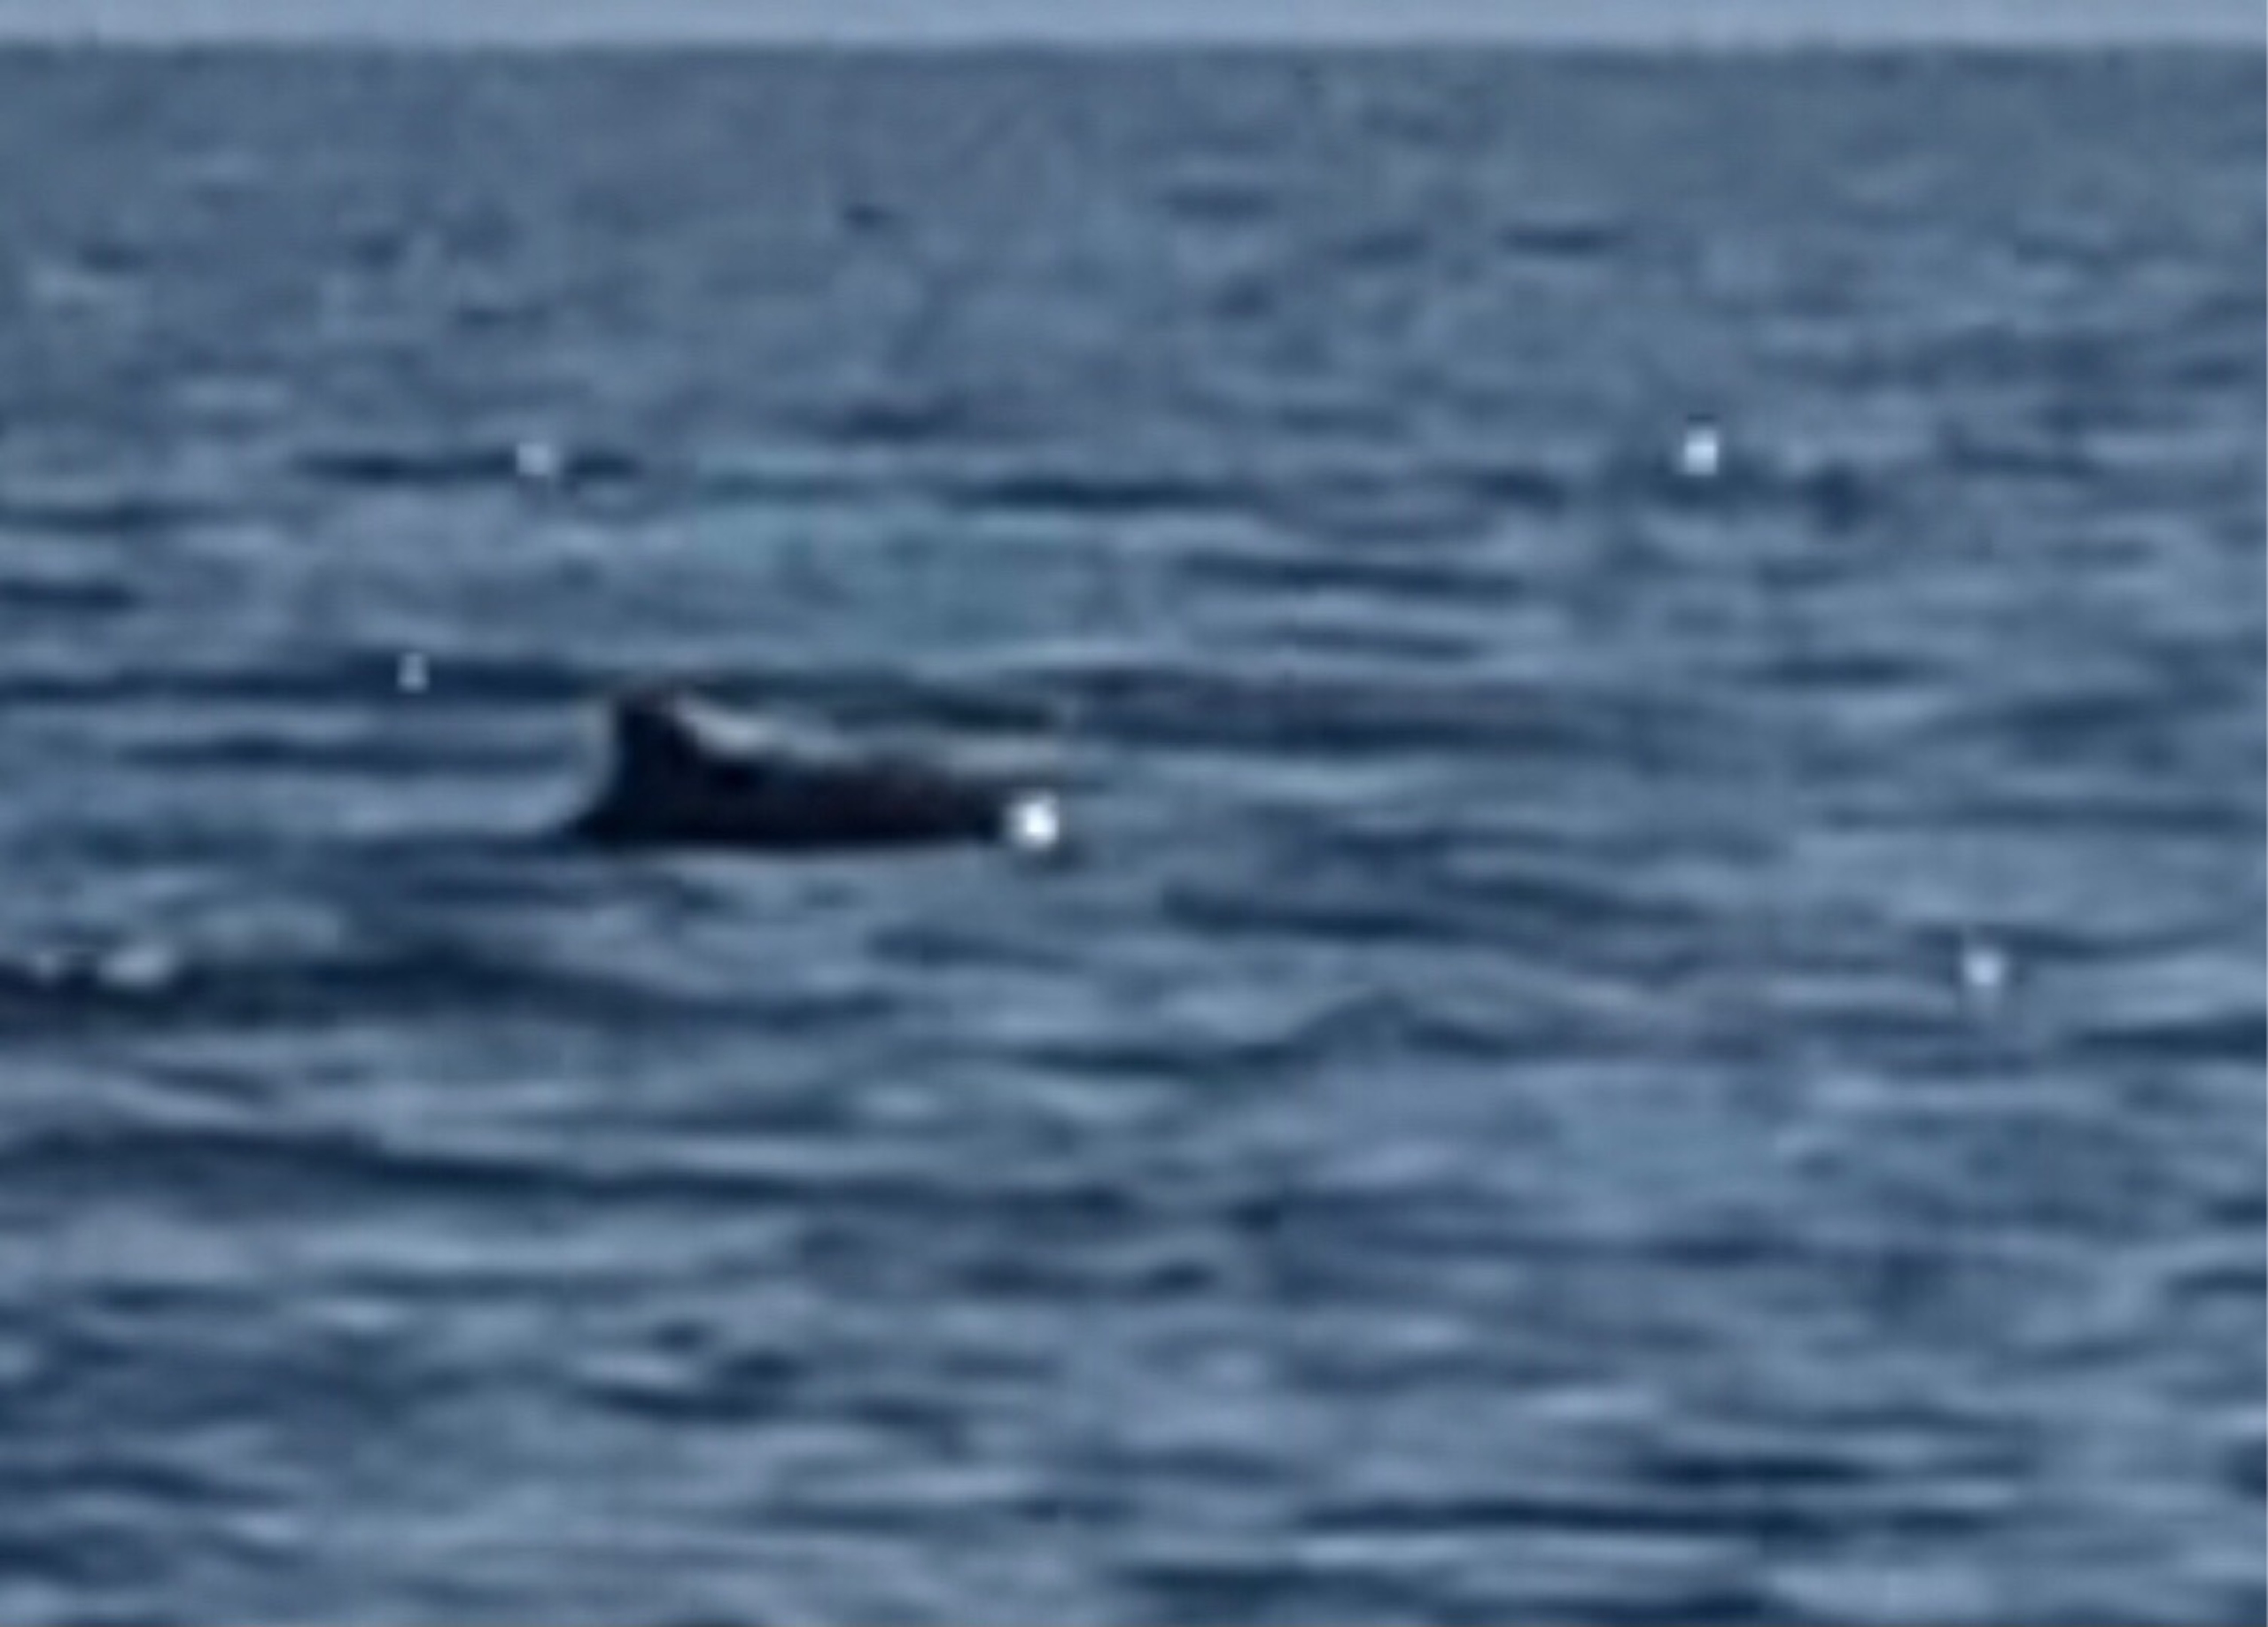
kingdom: Animalia
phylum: Chordata
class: Mammalia
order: Cetacea
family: Phocoenidae
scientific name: Phocoenidae
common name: Marsvin
